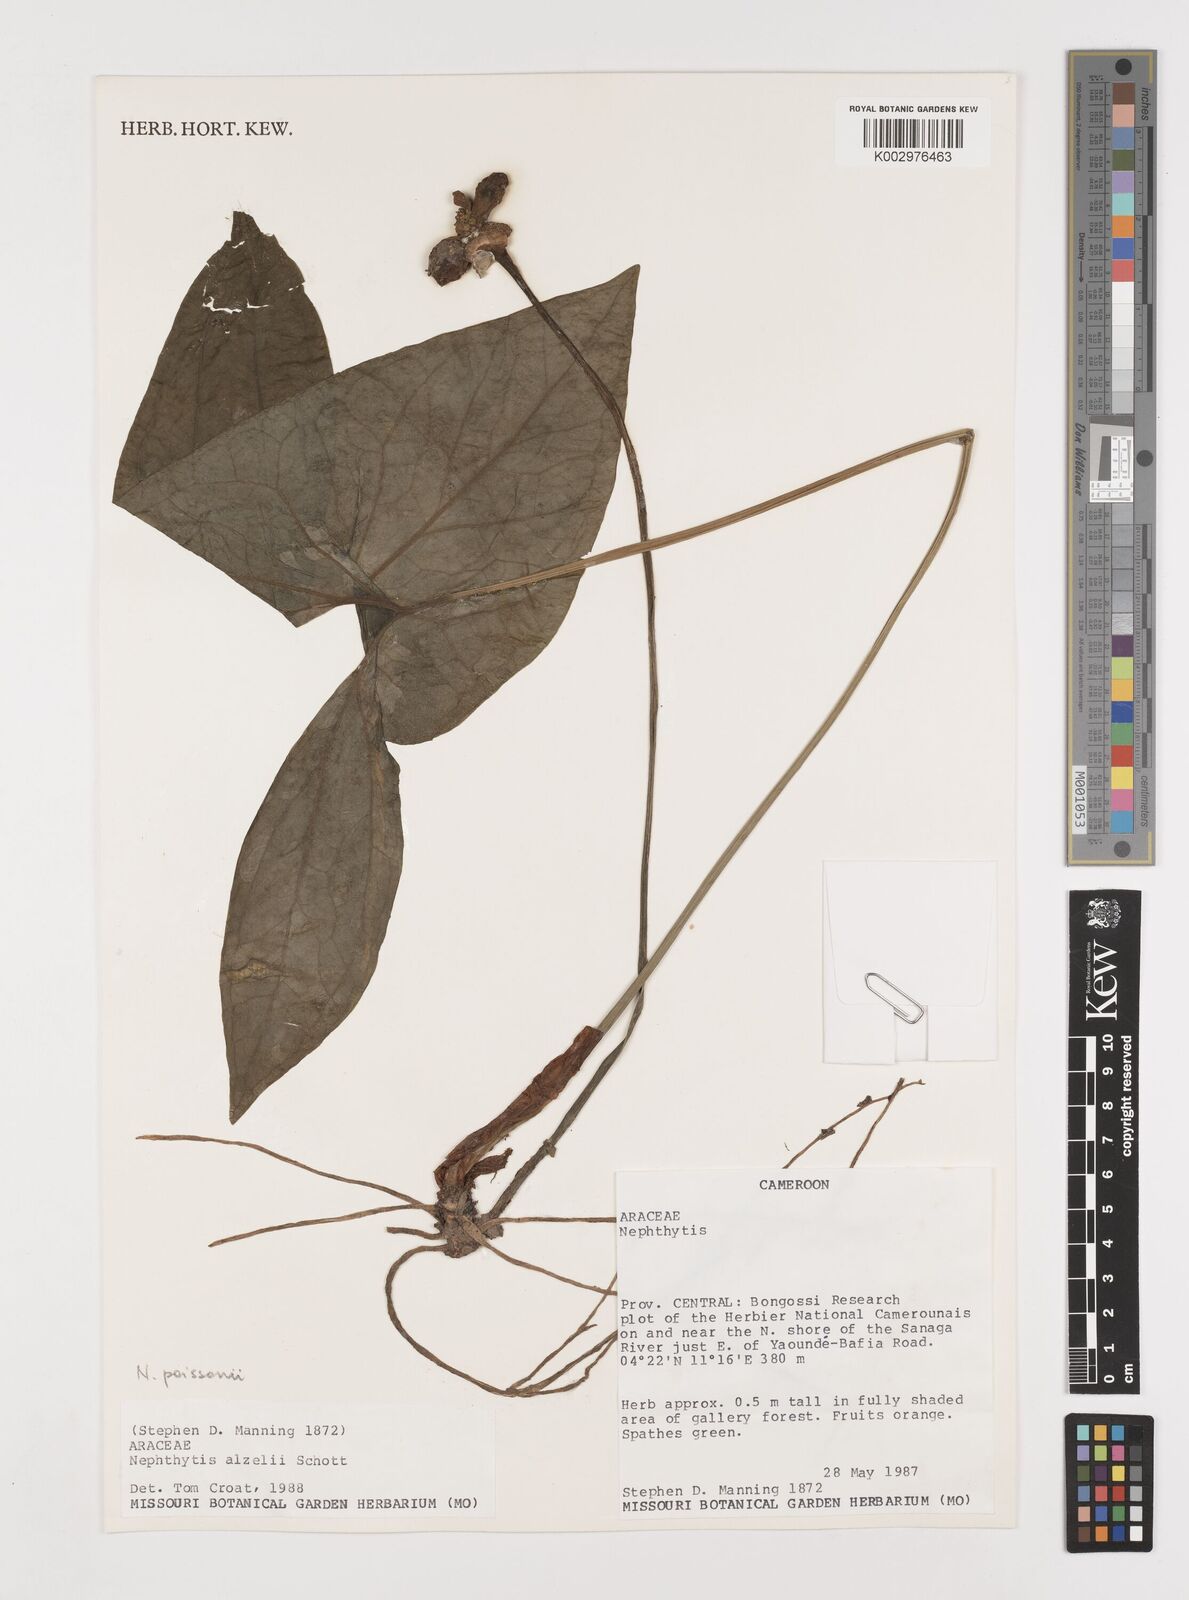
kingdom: Plantae
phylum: Tracheophyta
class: Liliopsida
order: Alismatales
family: Araceae
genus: Nephthytis
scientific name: Nephthytis
